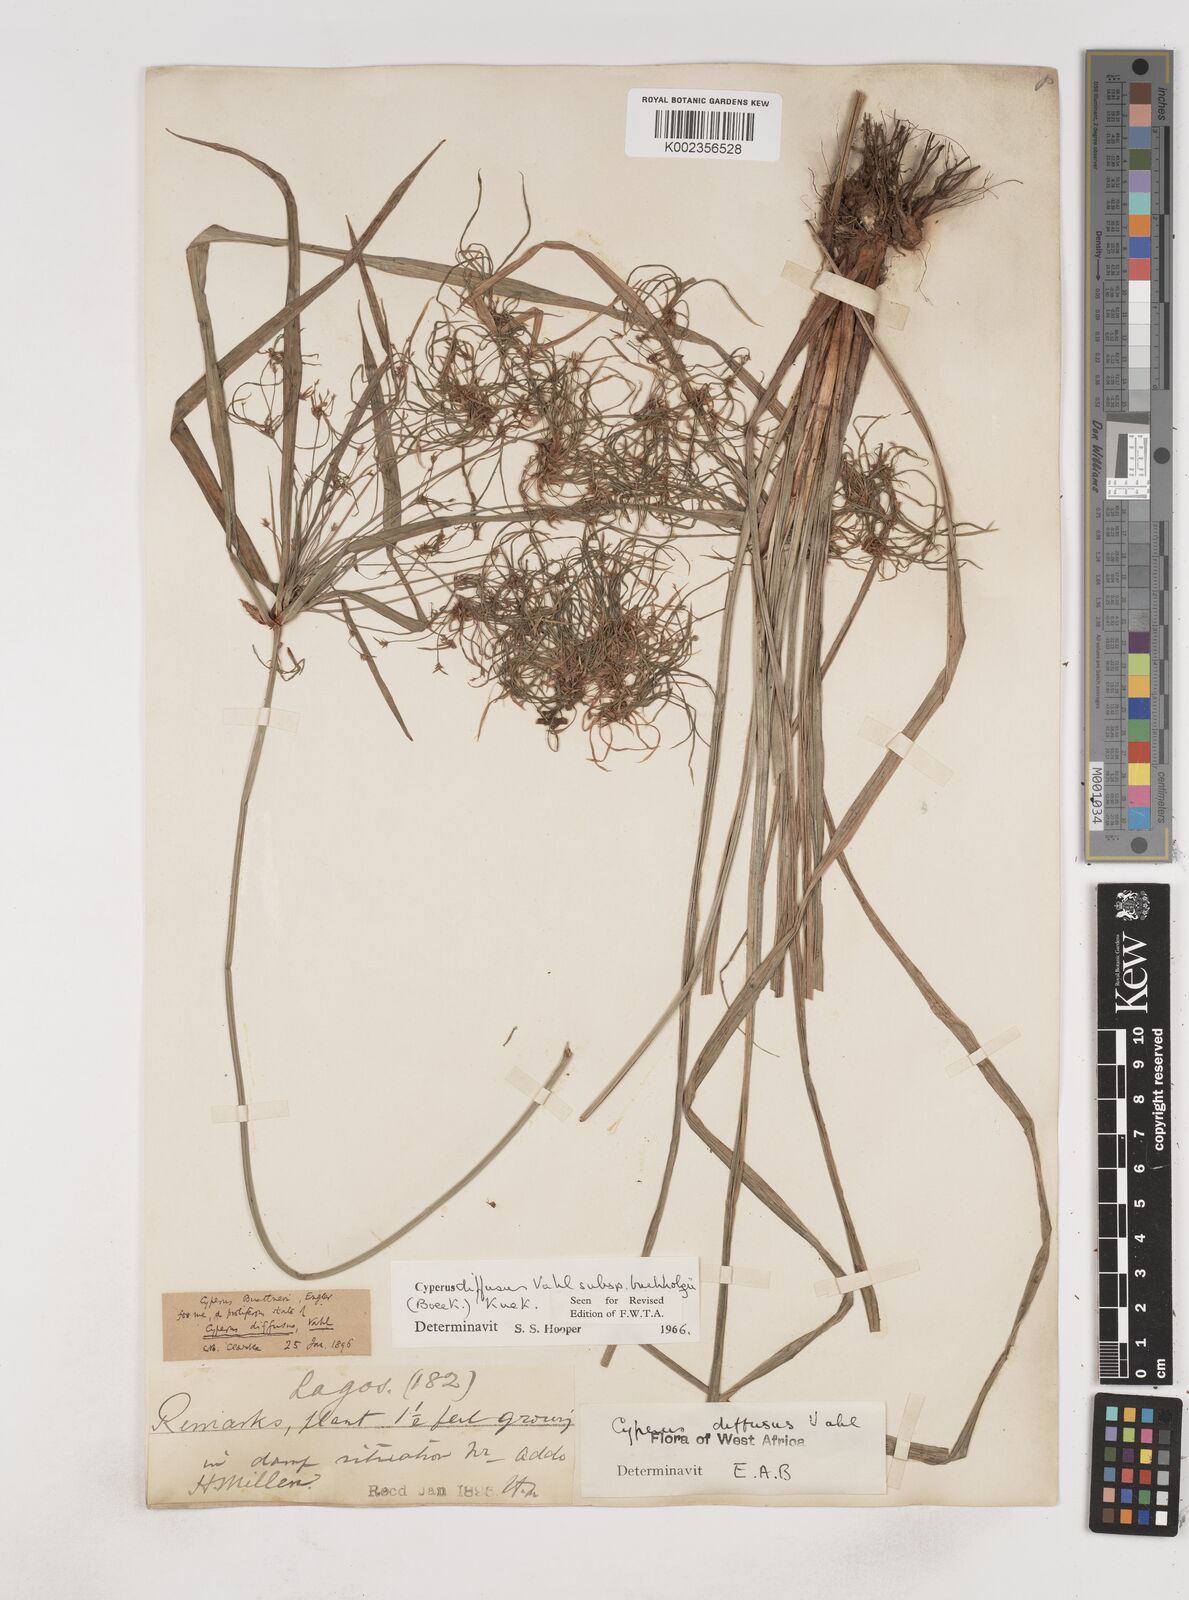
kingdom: Plantae
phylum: Tracheophyta
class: Liliopsida
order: Poales
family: Cyperaceae
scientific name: Cyperaceae
